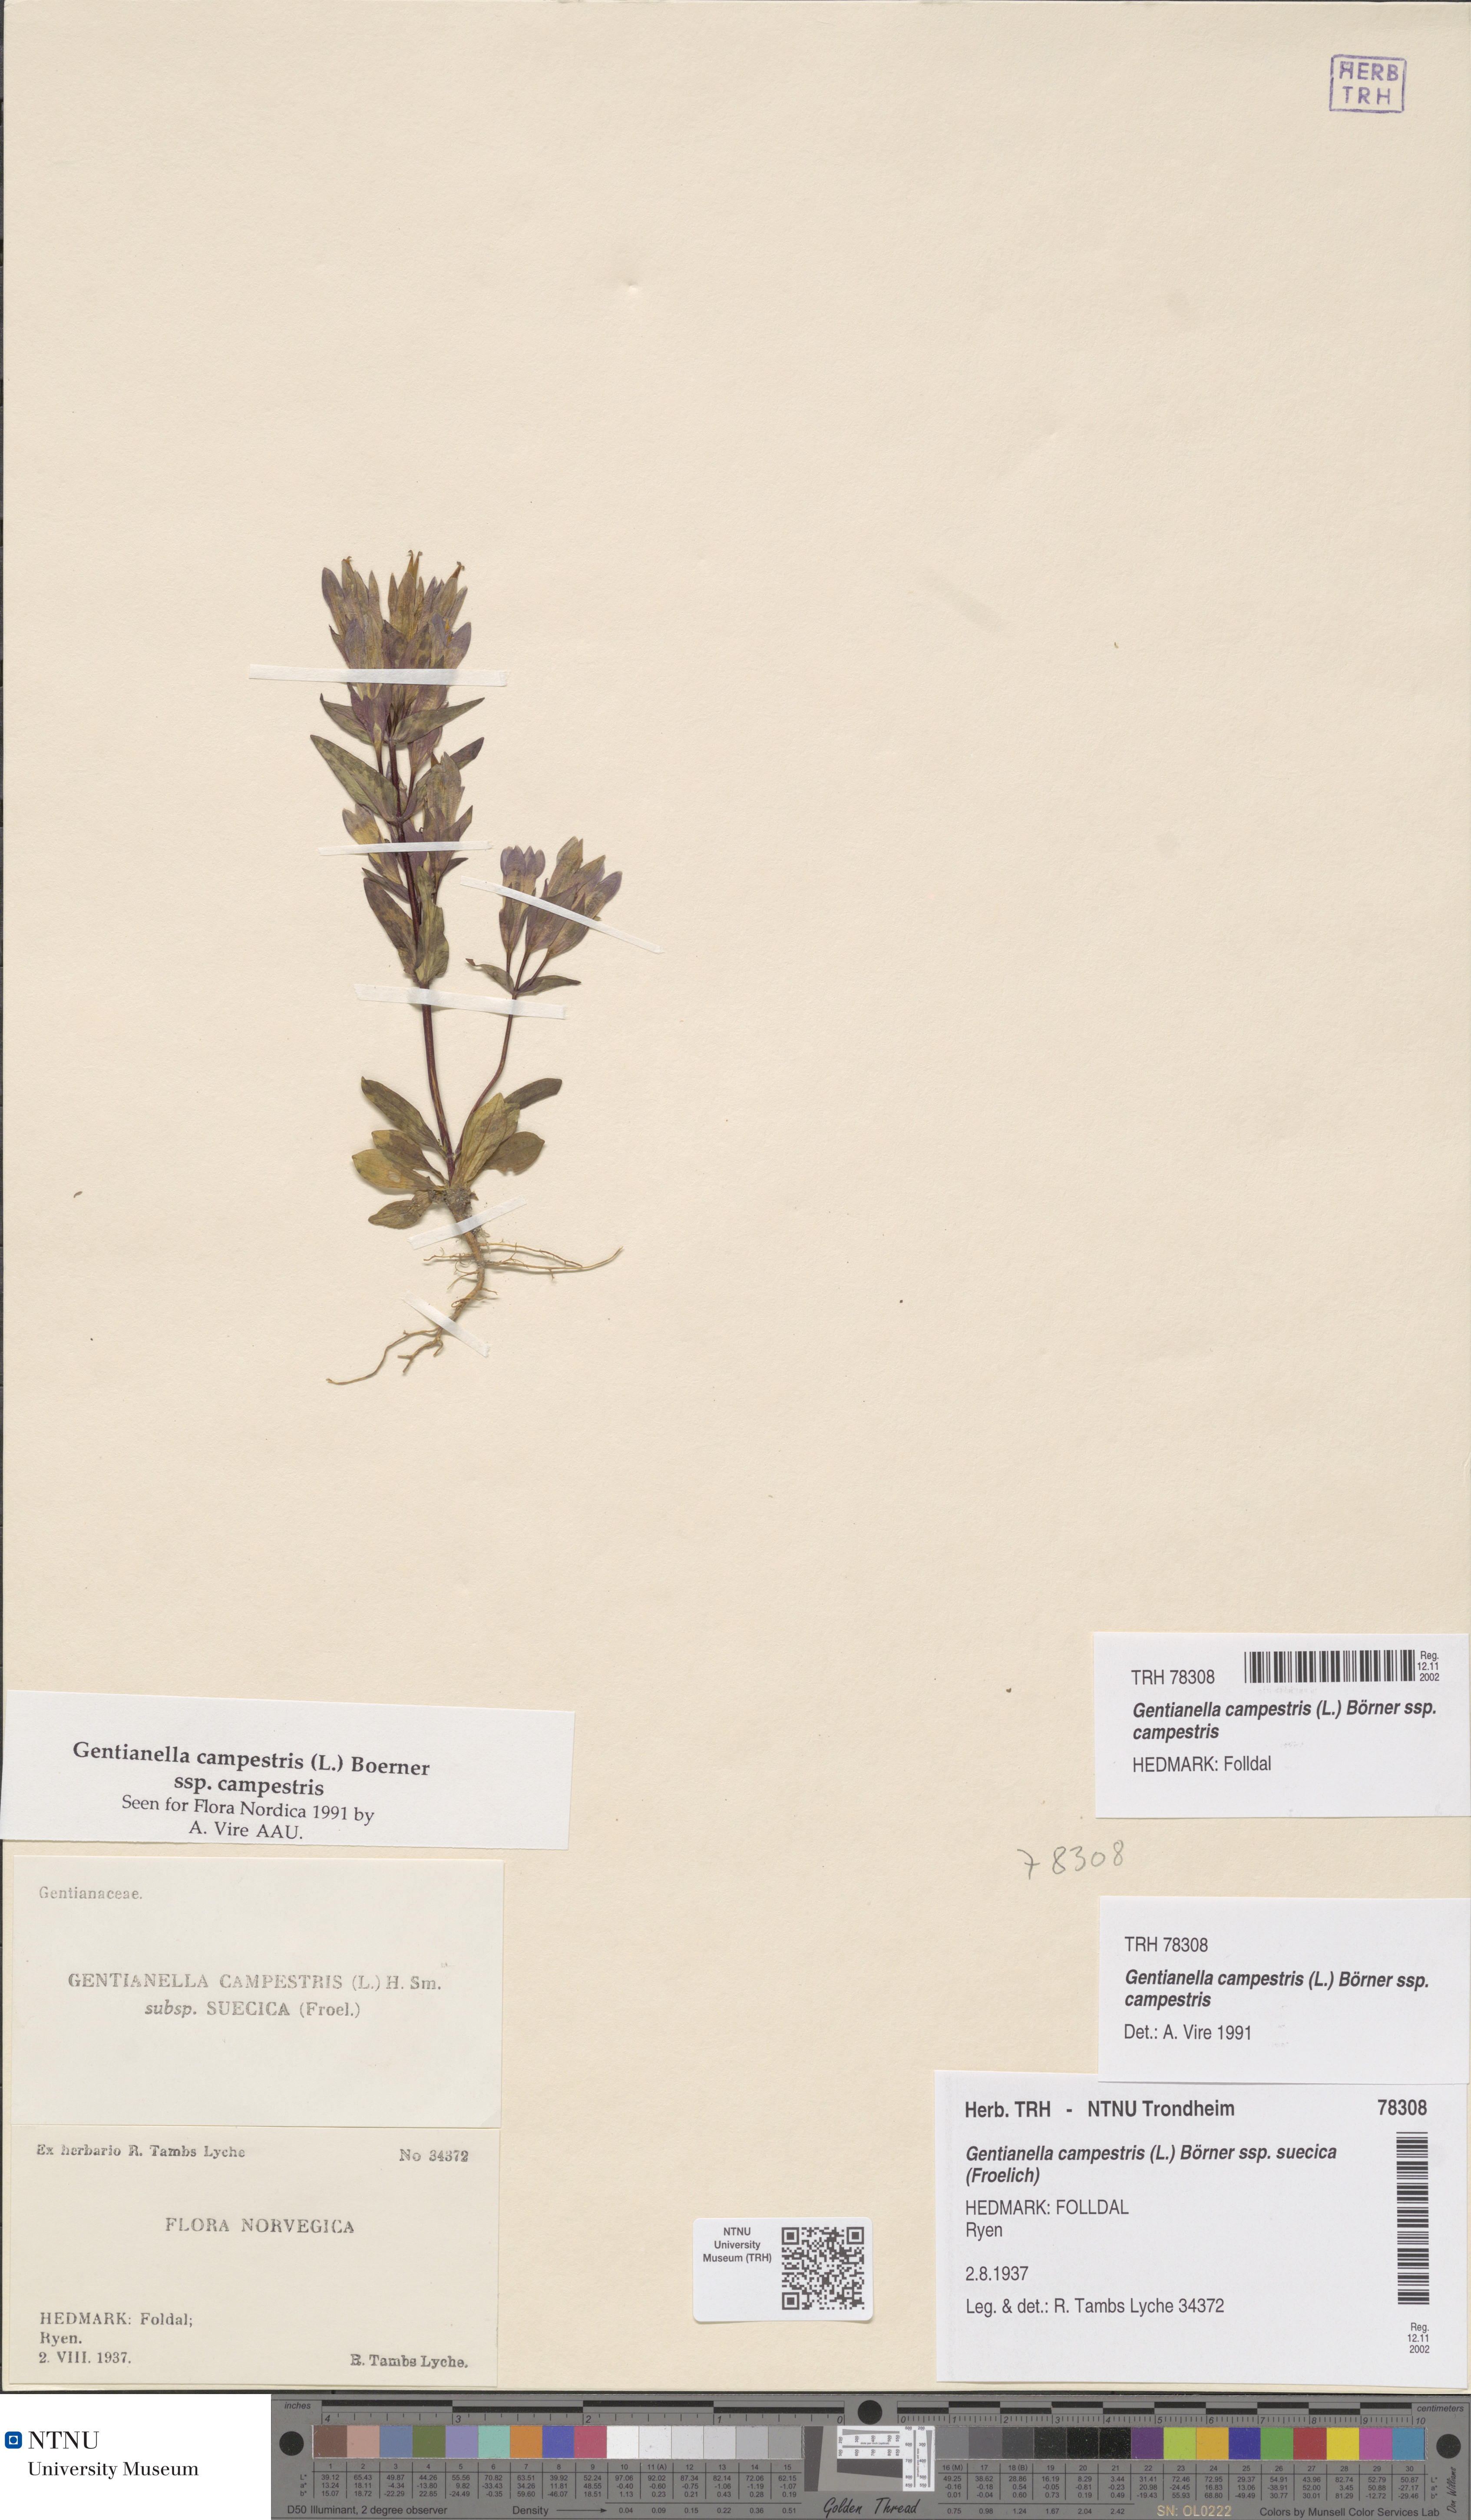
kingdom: Plantae
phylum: Tracheophyta
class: Magnoliopsida
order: Gentianales
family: Gentianaceae
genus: Gentianella
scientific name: Gentianella campestris
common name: Field gentian
